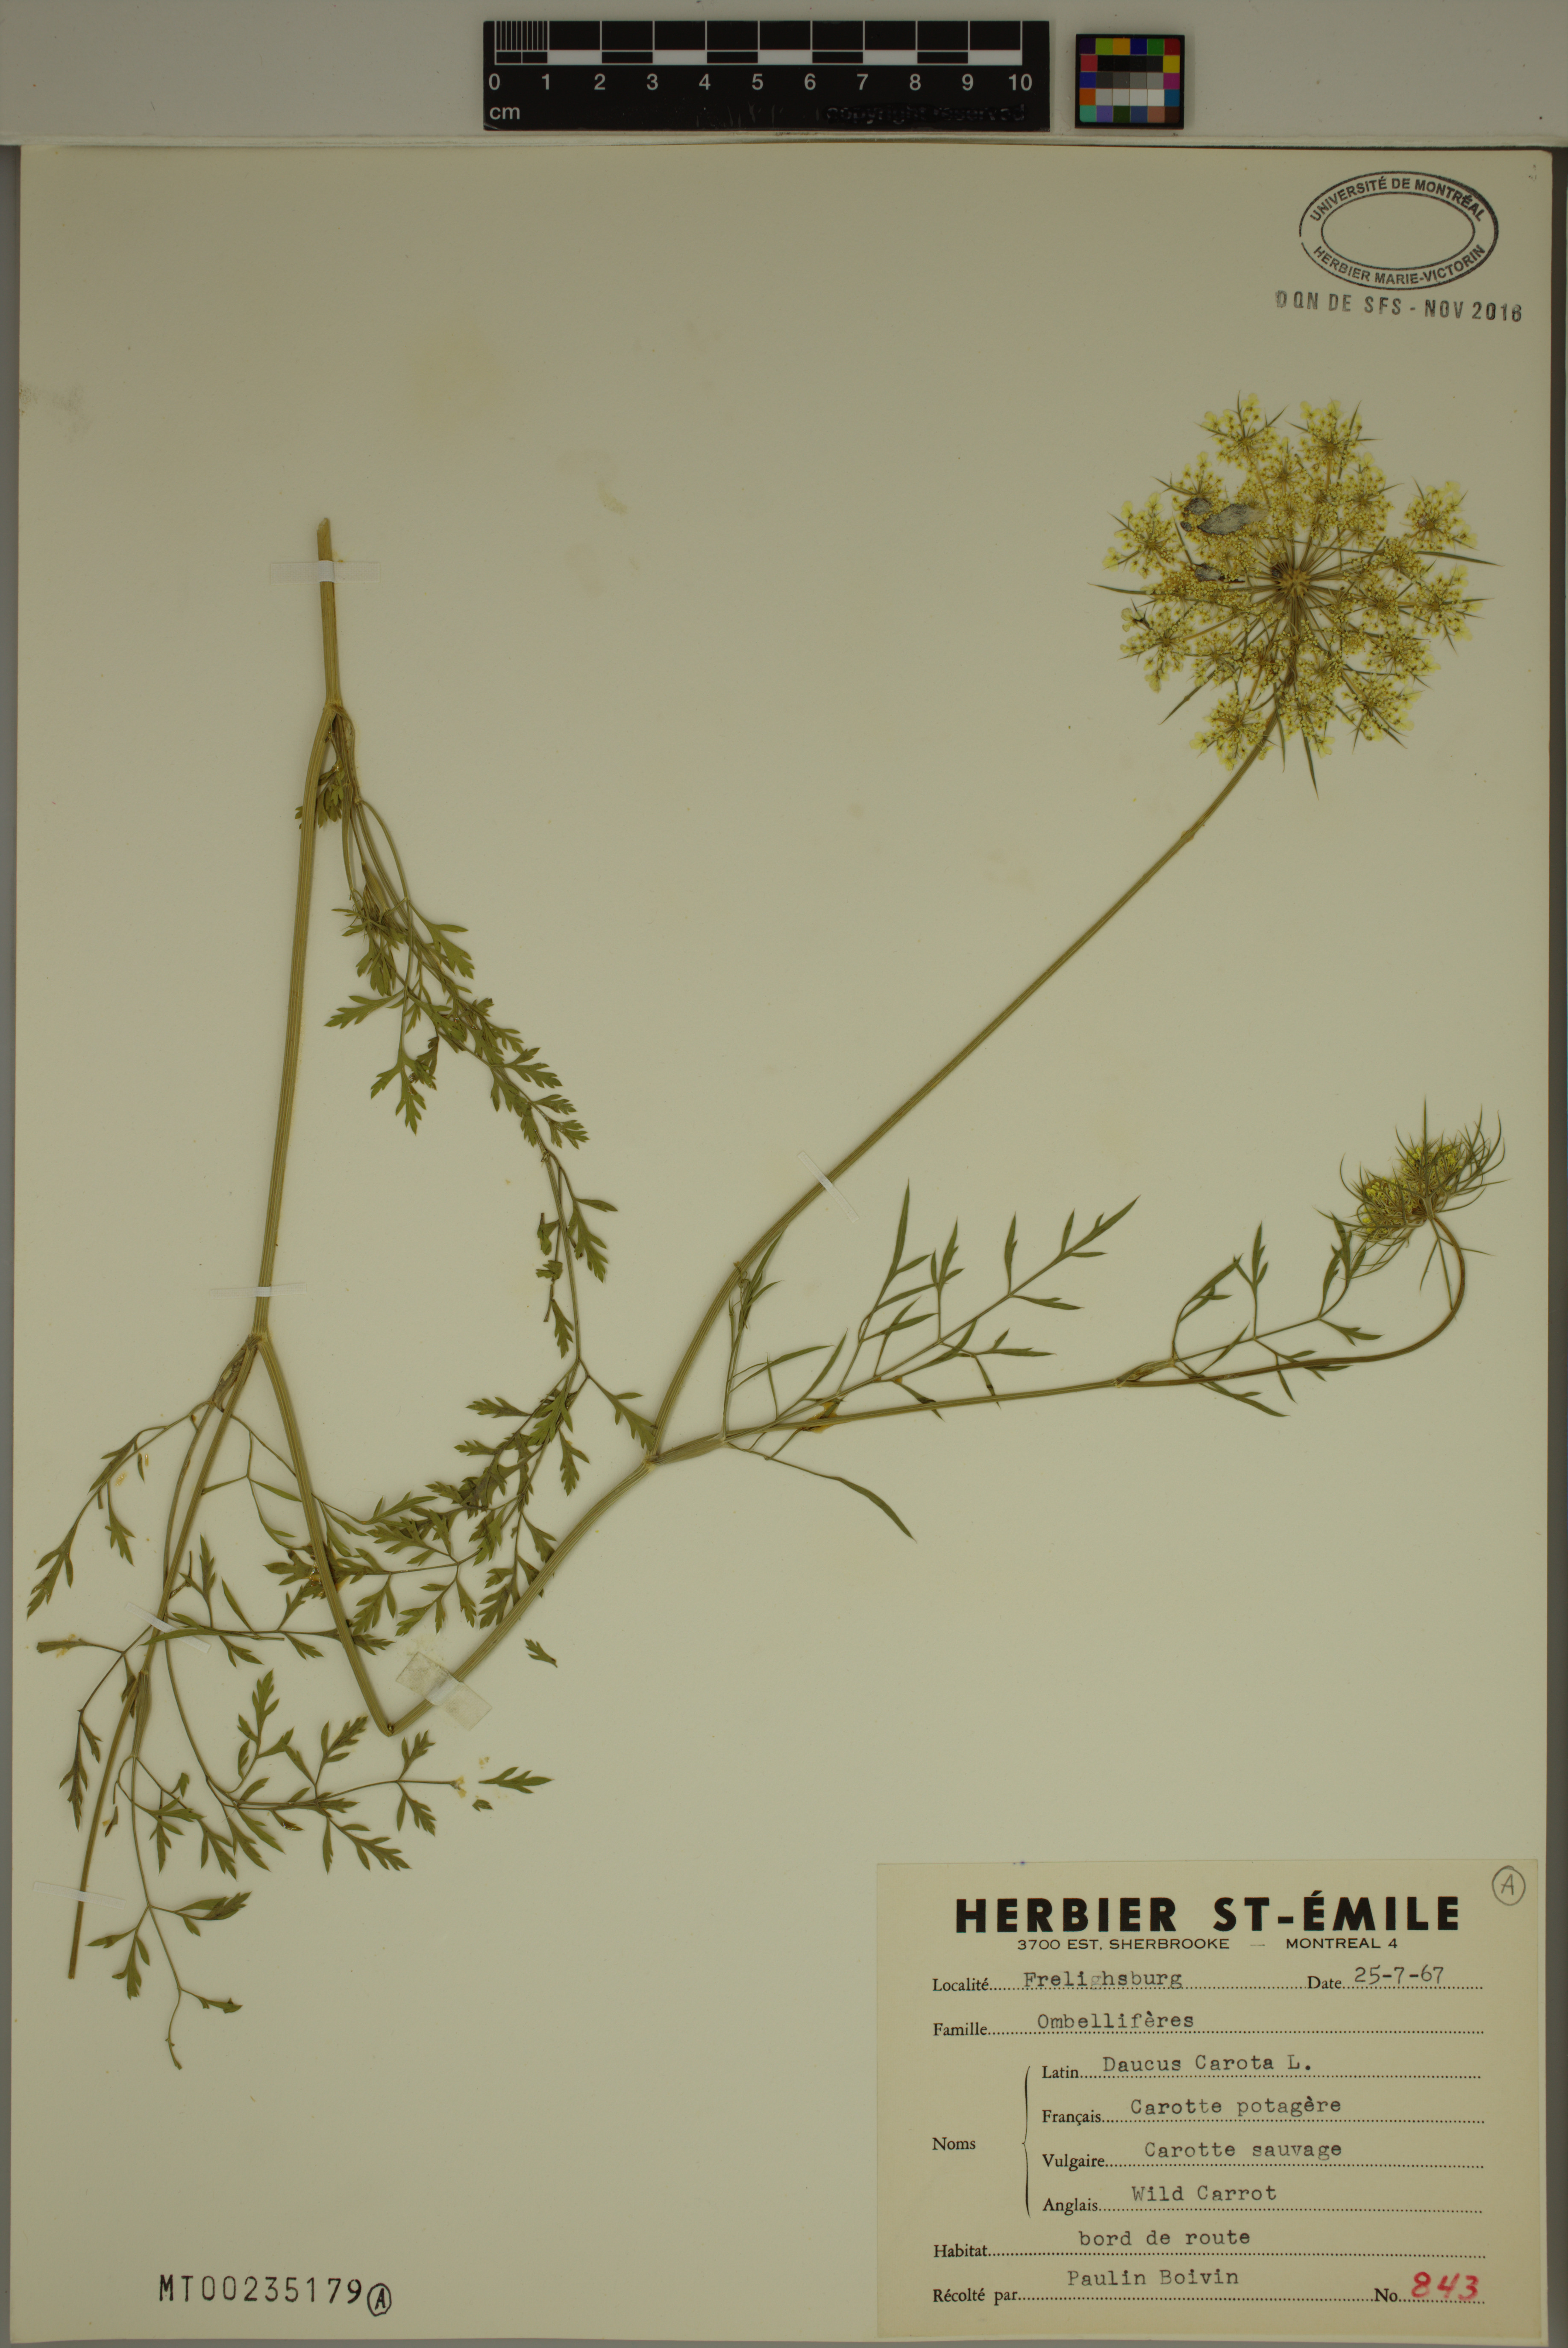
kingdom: Plantae
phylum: Tracheophyta
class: Magnoliopsida
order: Apiales
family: Apiaceae
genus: Daucus
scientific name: Daucus carota
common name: Wild carrot
